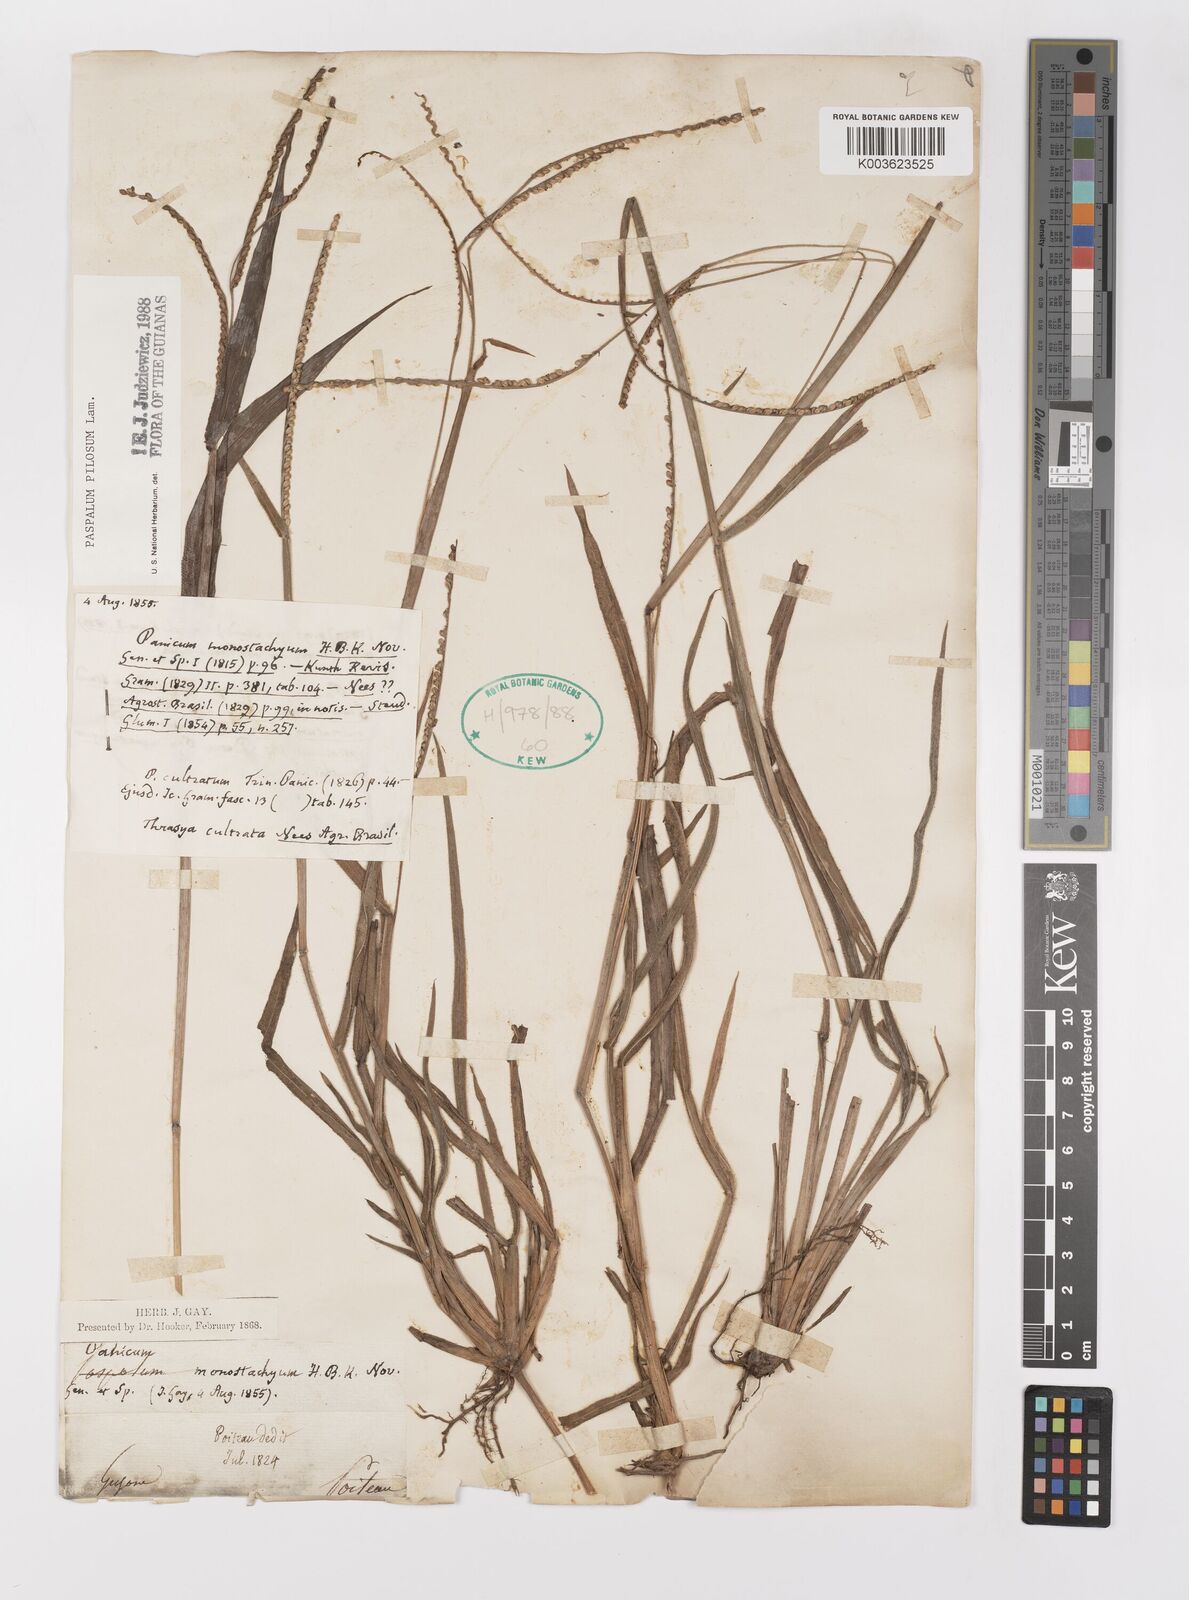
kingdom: Plantae
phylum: Tracheophyta
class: Liliopsida
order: Poales
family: Poaceae
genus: Paspalum
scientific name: Paspalum pilosum
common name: Crowngrass
